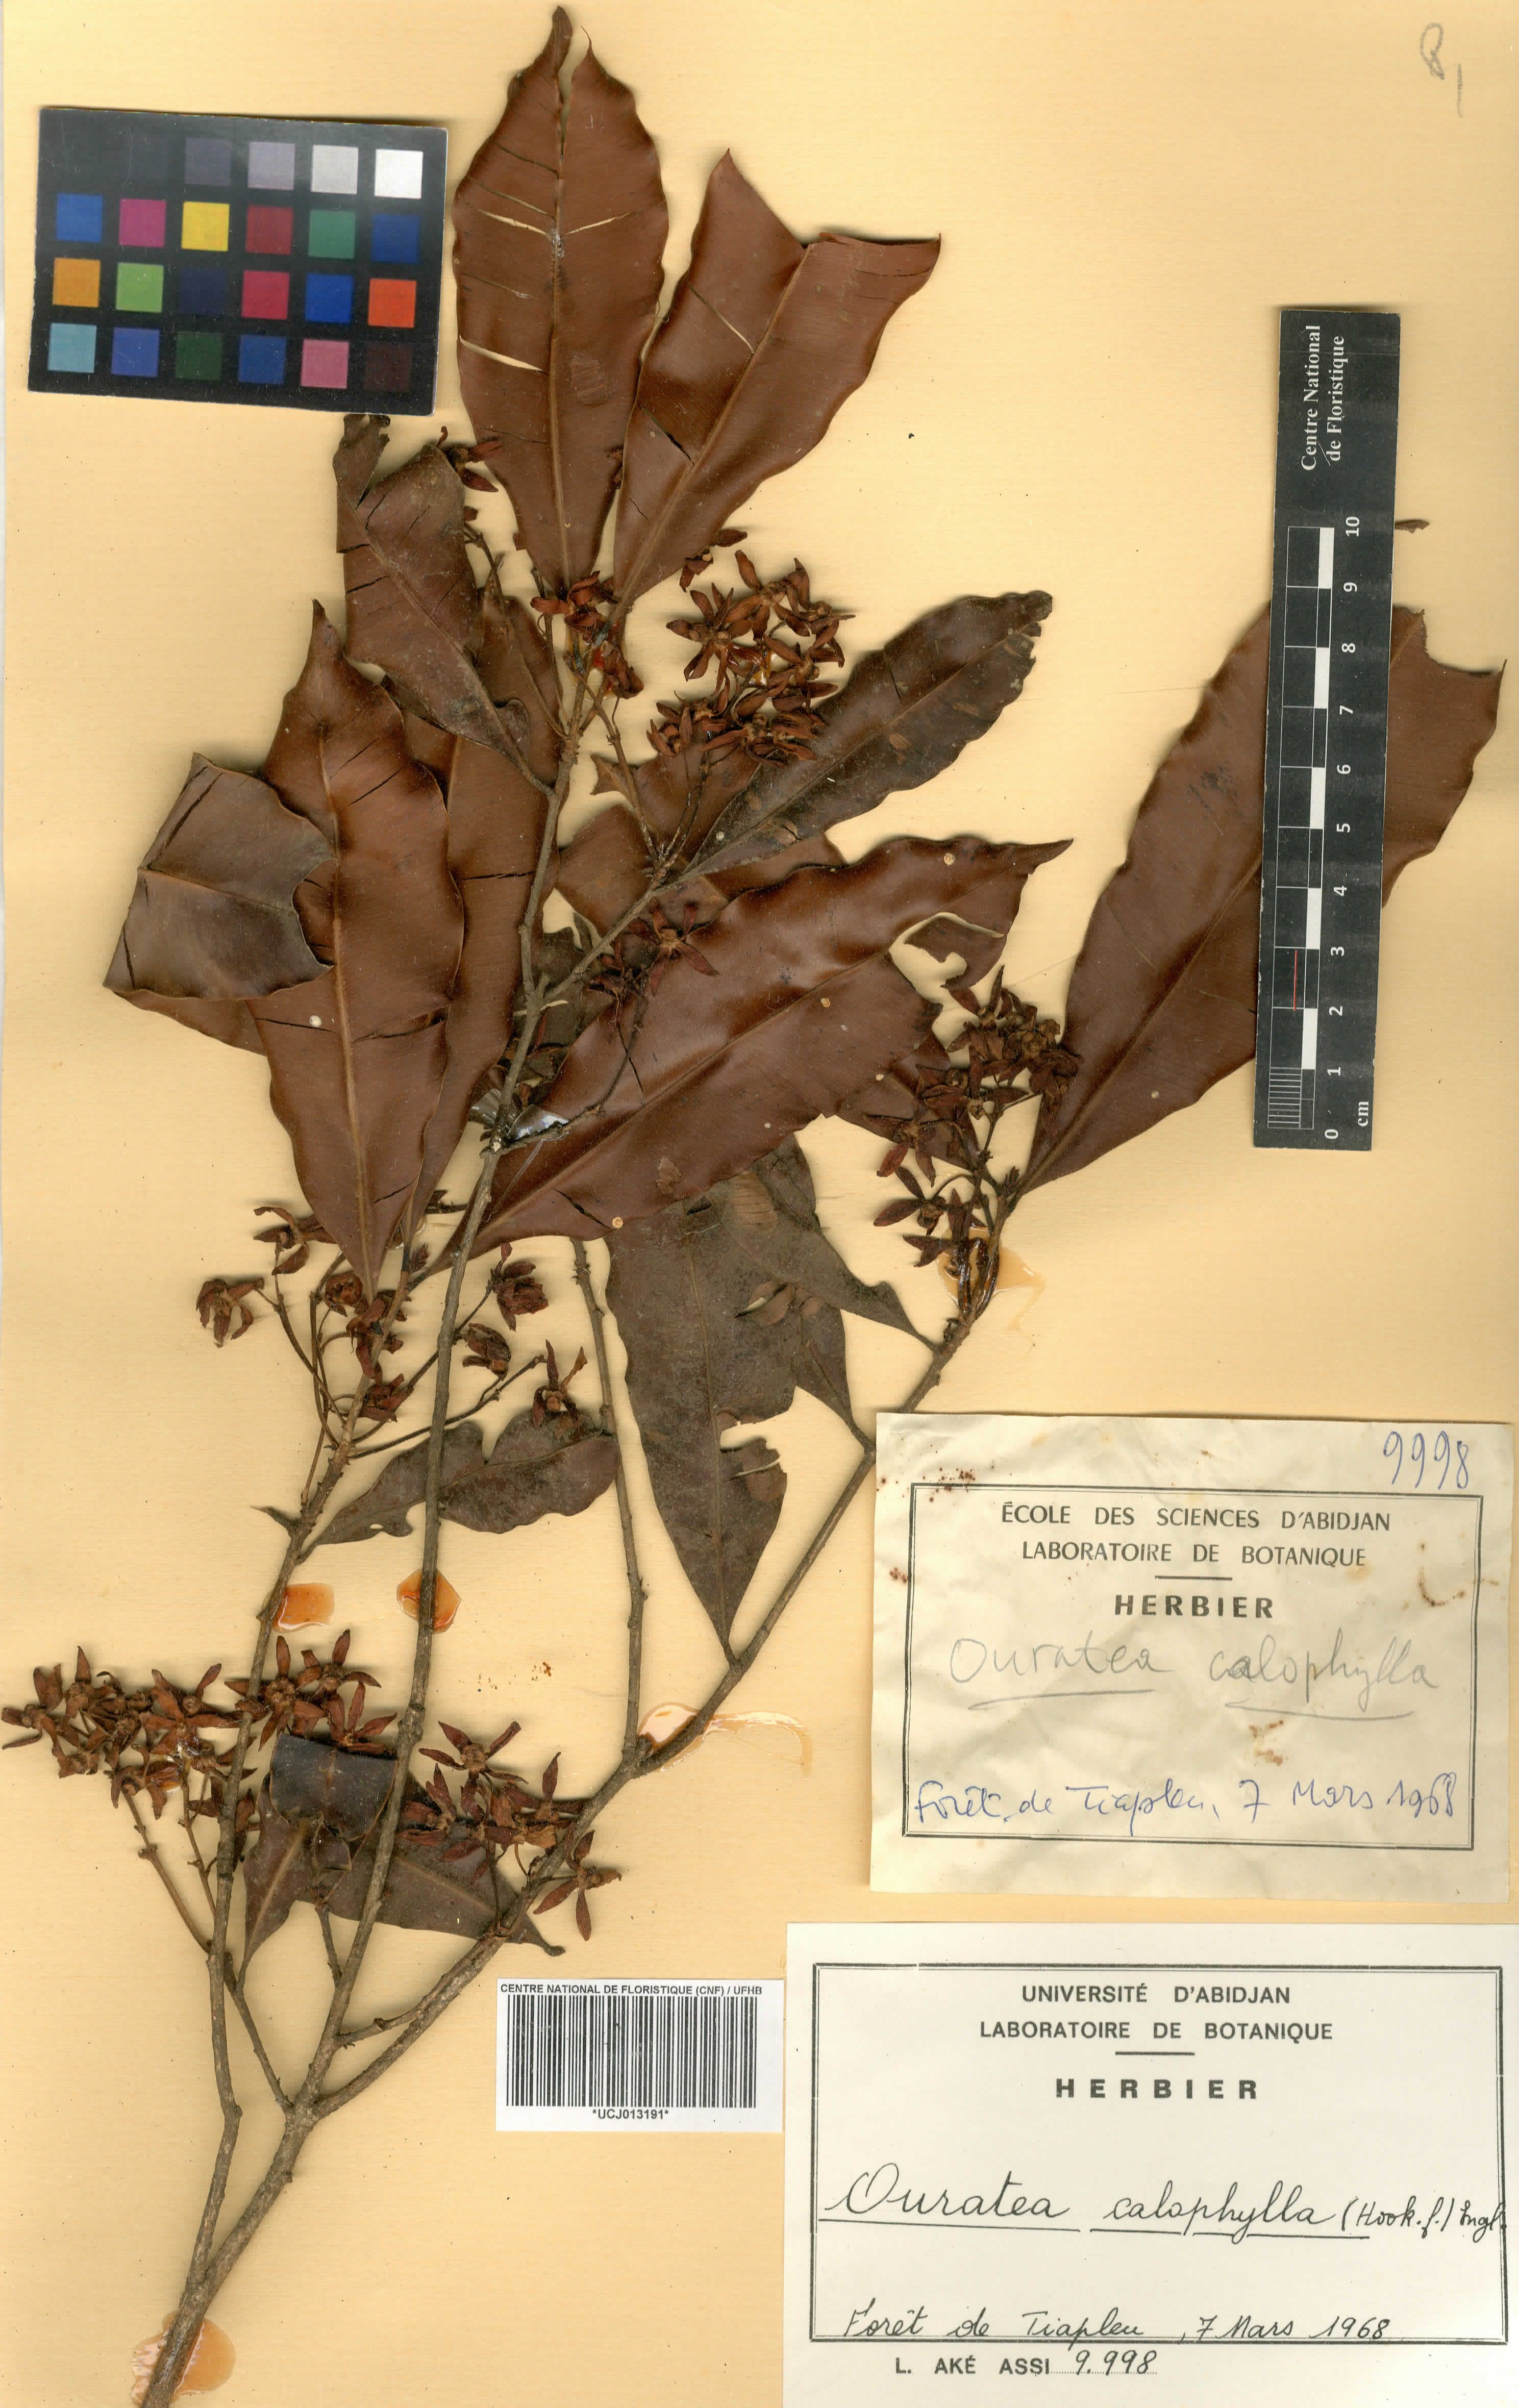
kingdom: Plantae
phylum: Tracheophyta
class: Magnoliopsida
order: Malpighiales
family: Ochnaceae
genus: Rhabdophyllum
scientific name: Rhabdophyllum calophyllum
